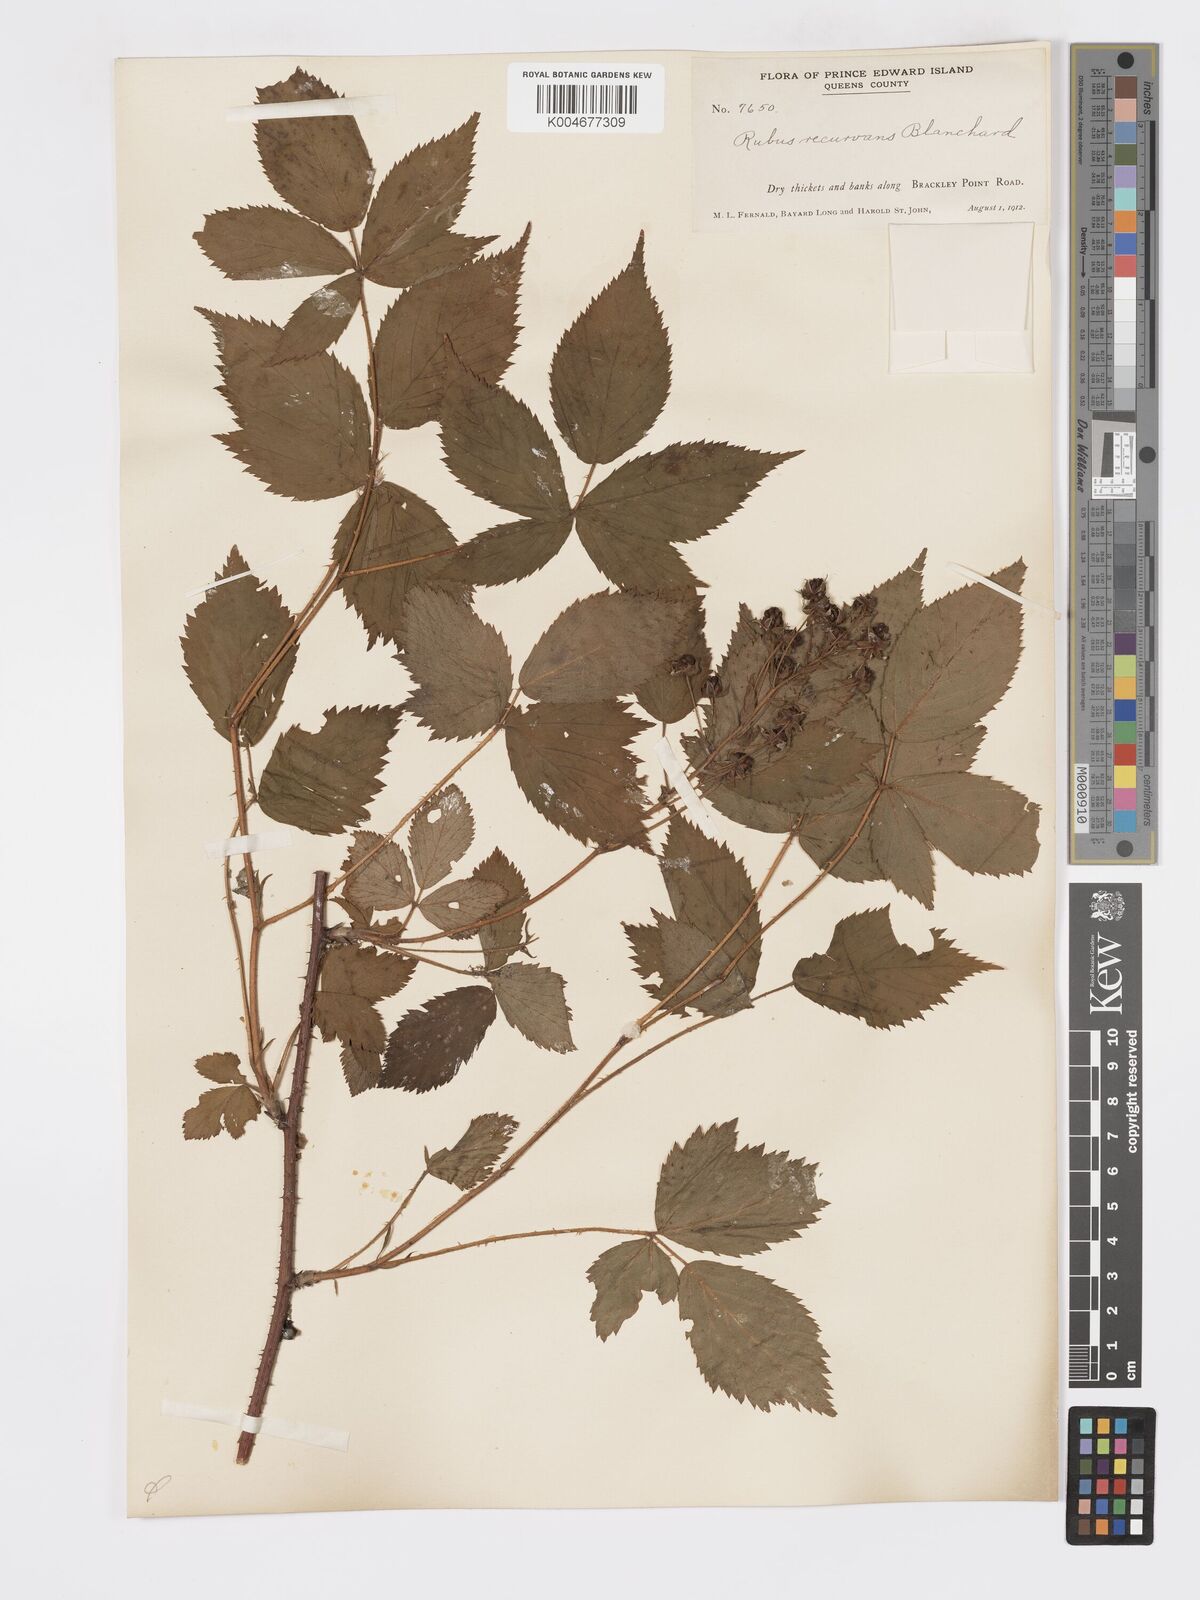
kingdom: Plantae
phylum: Tracheophyta
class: Magnoliopsida
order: Rosales
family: Rosaceae
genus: Rubus
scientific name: Rubus frondosus
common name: Yankee blackberry
